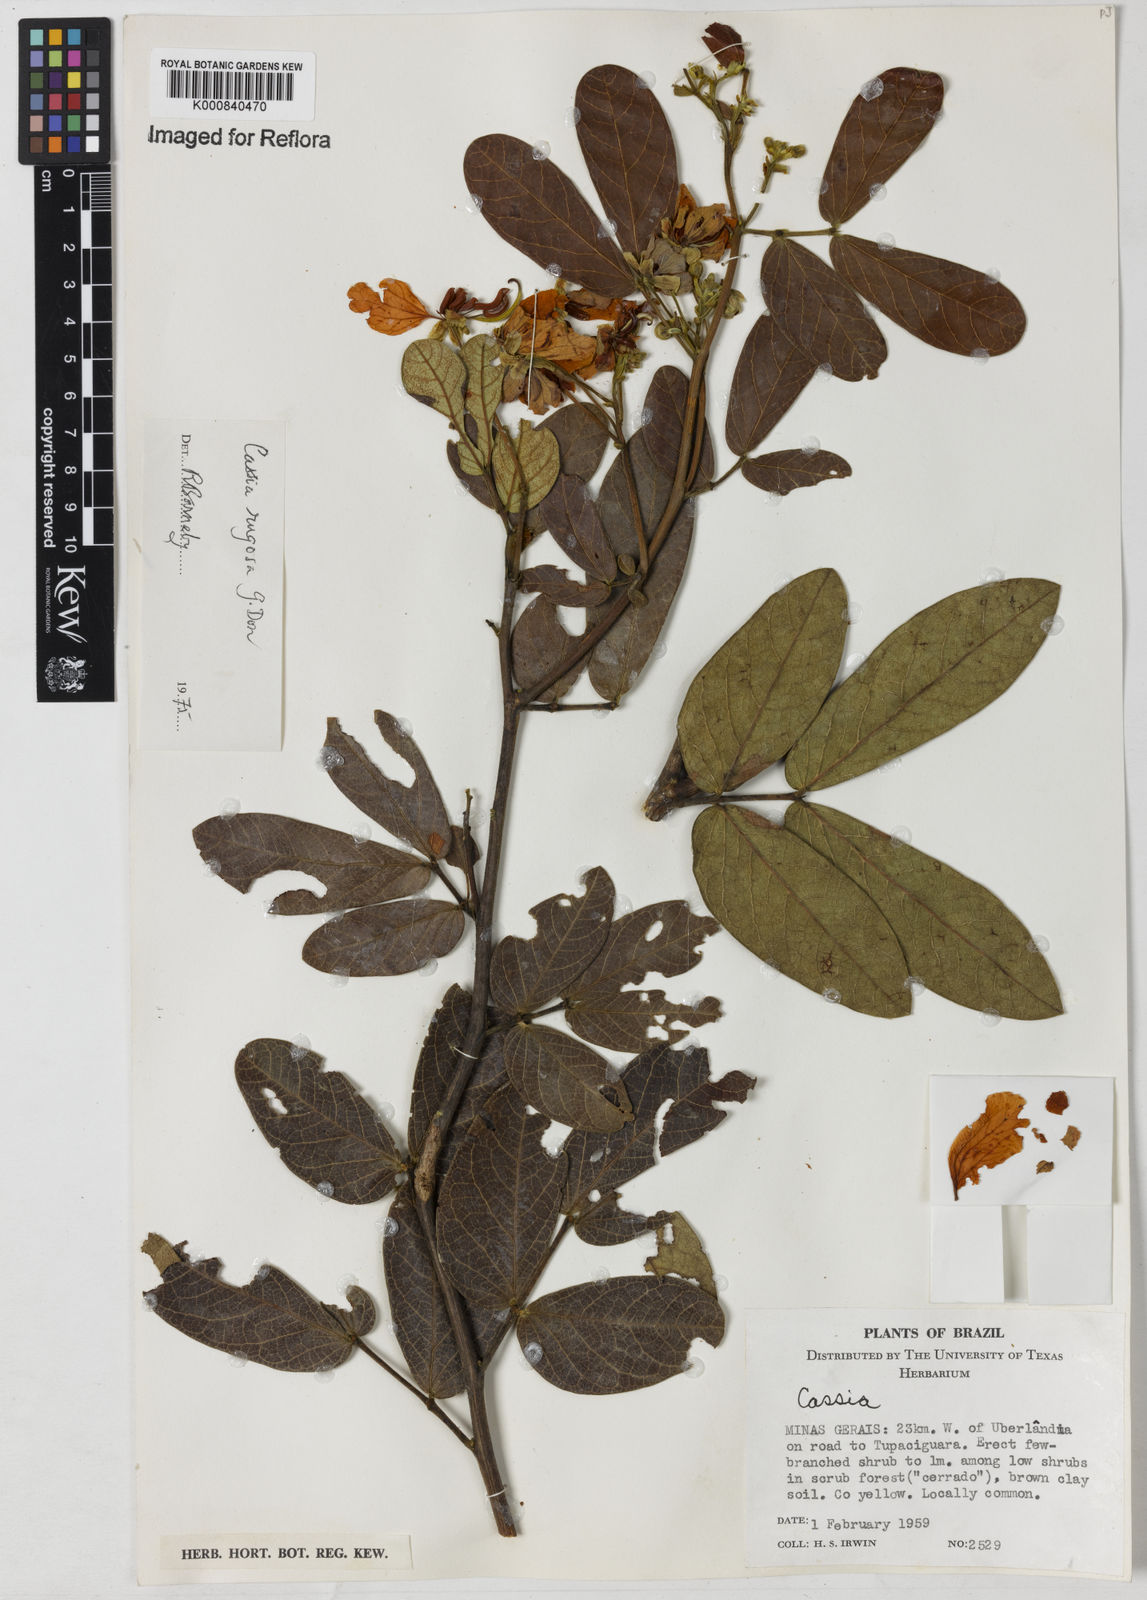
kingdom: Plantae
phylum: Tracheophyta
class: Magnoliopsida
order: Fabales
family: Fabaceae
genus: Senna
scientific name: Senna rugosa
